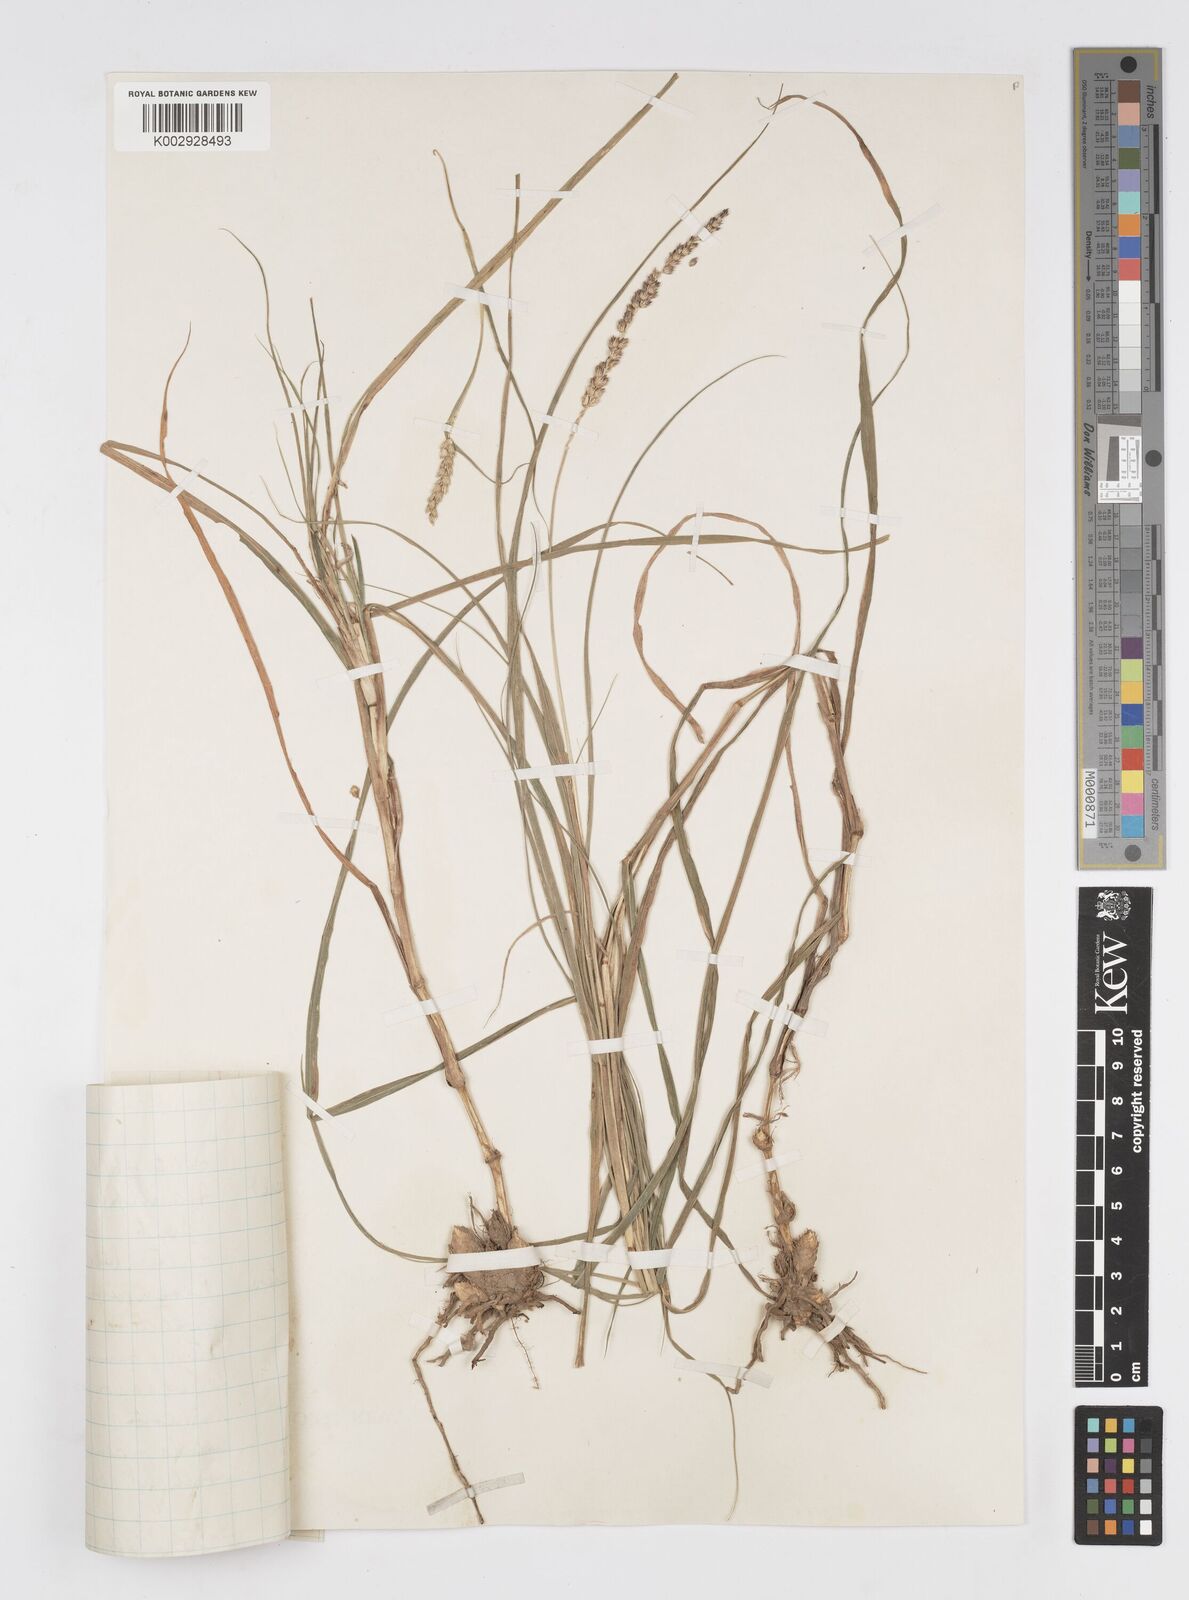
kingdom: Plantae
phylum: Tracheophyta
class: Liliopsida
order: Poales
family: Poaceae
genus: Cenchrus
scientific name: Cenchrus setigerus
